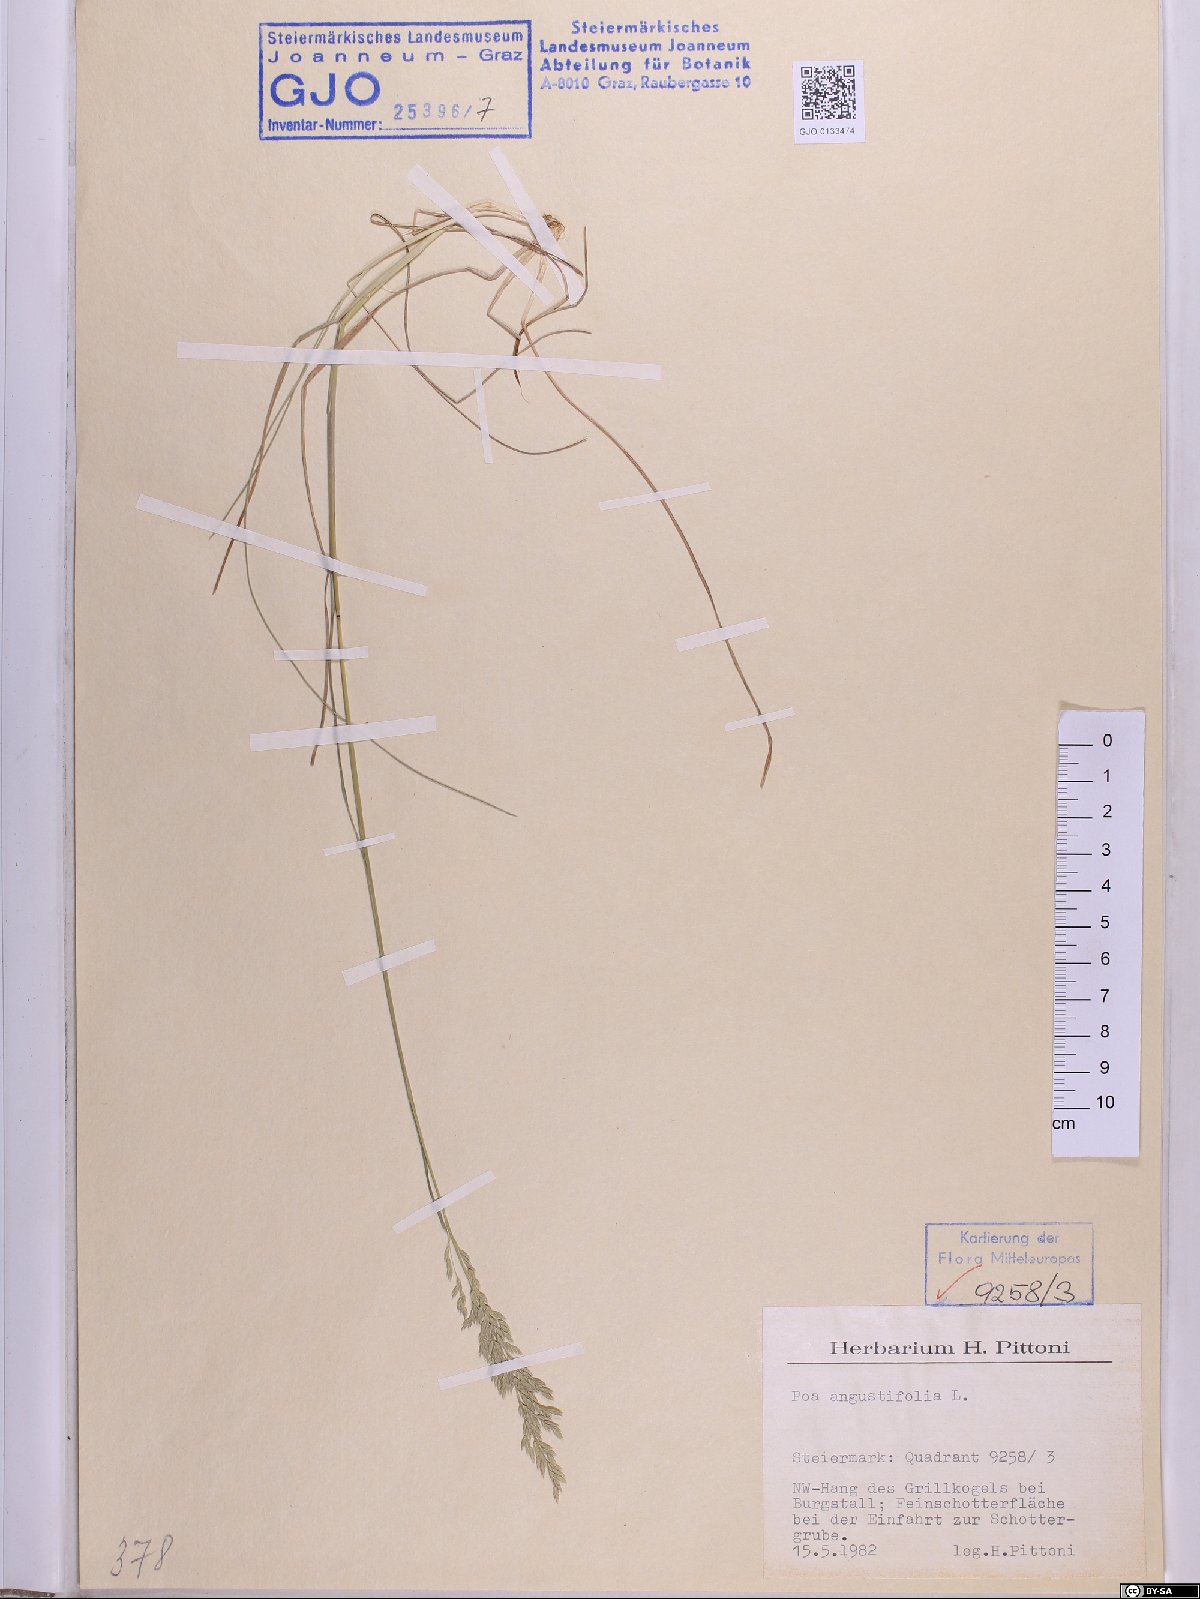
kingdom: Plantae
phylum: Tracheophyta
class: Liliopsida
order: Poales
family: Poaceae
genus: Poa
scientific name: Poa angustifolia
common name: Narrow-leaved meadow-grass
